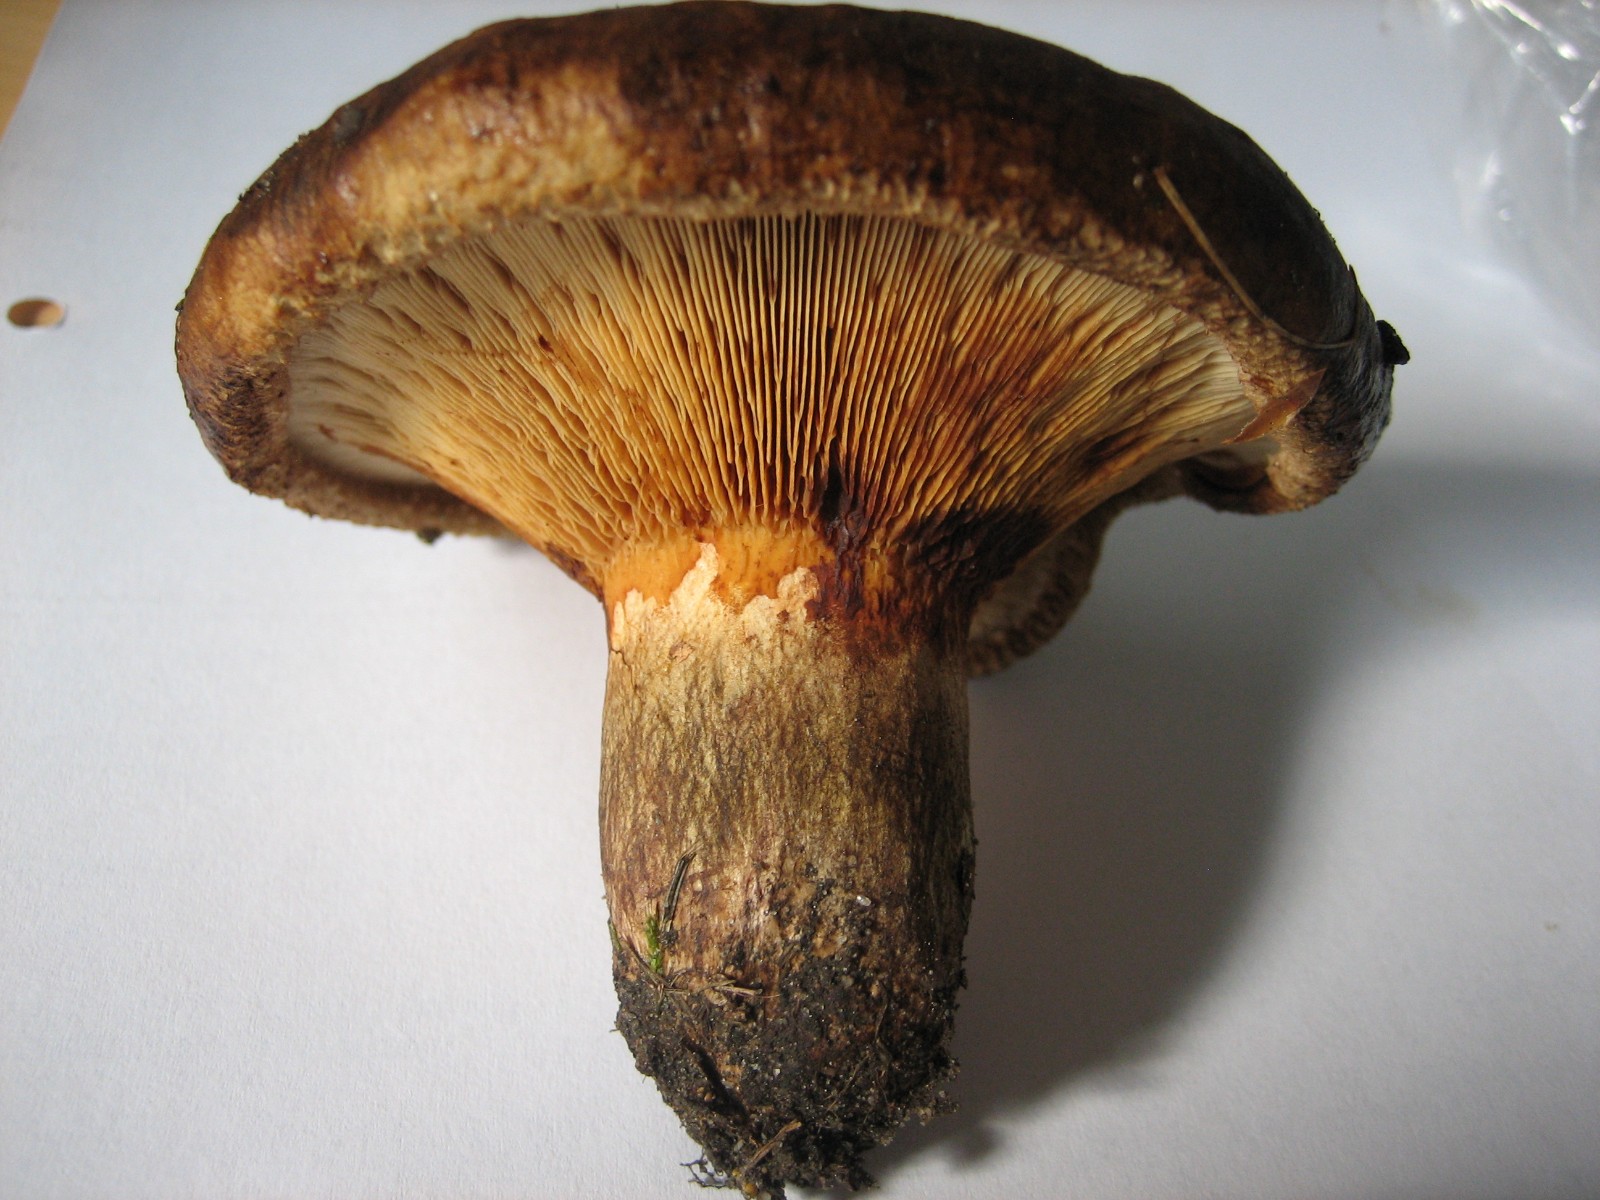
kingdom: Fungi
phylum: Basidiomycota
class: Agaricomycetes
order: Boletales
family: Paxillaceae
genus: Paxillus
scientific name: Paxillus involutus
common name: almindelig netbladhat
